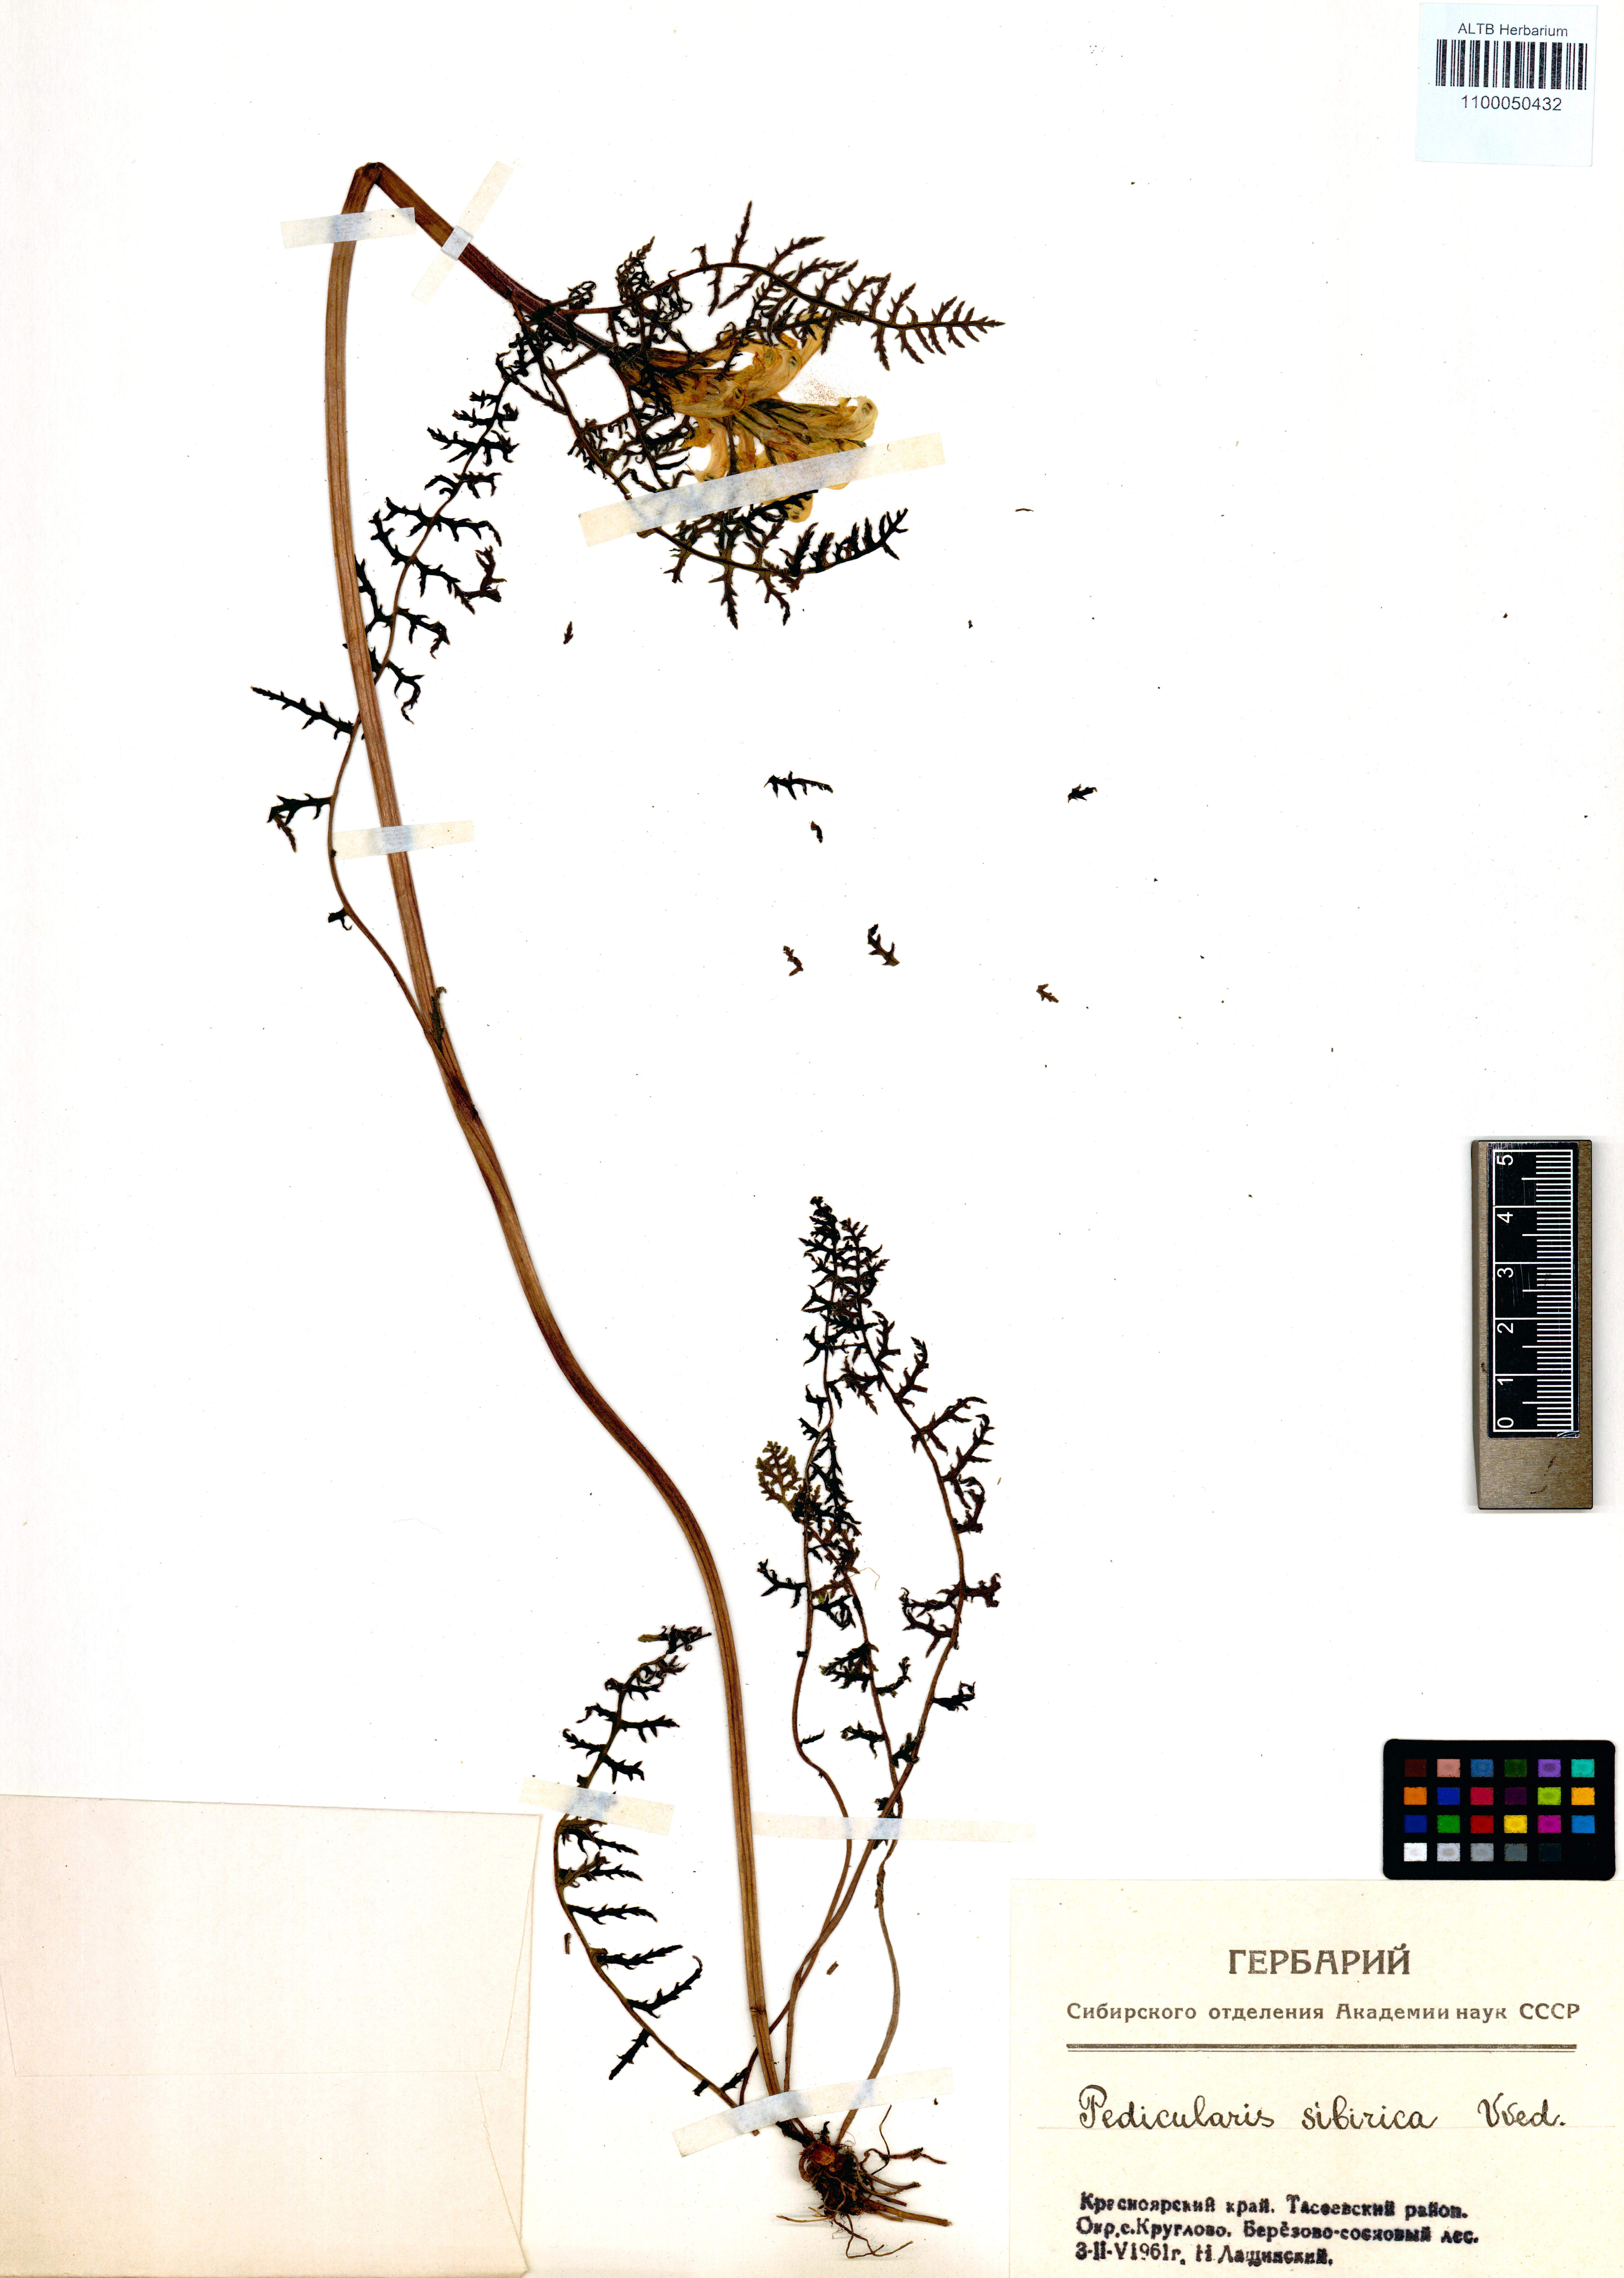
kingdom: Plantae
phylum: Tracheophyta
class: Magnoliopsida
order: Lamiales
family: Orobanchaceae
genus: Pedicularis
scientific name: Pedicularis sibirica
